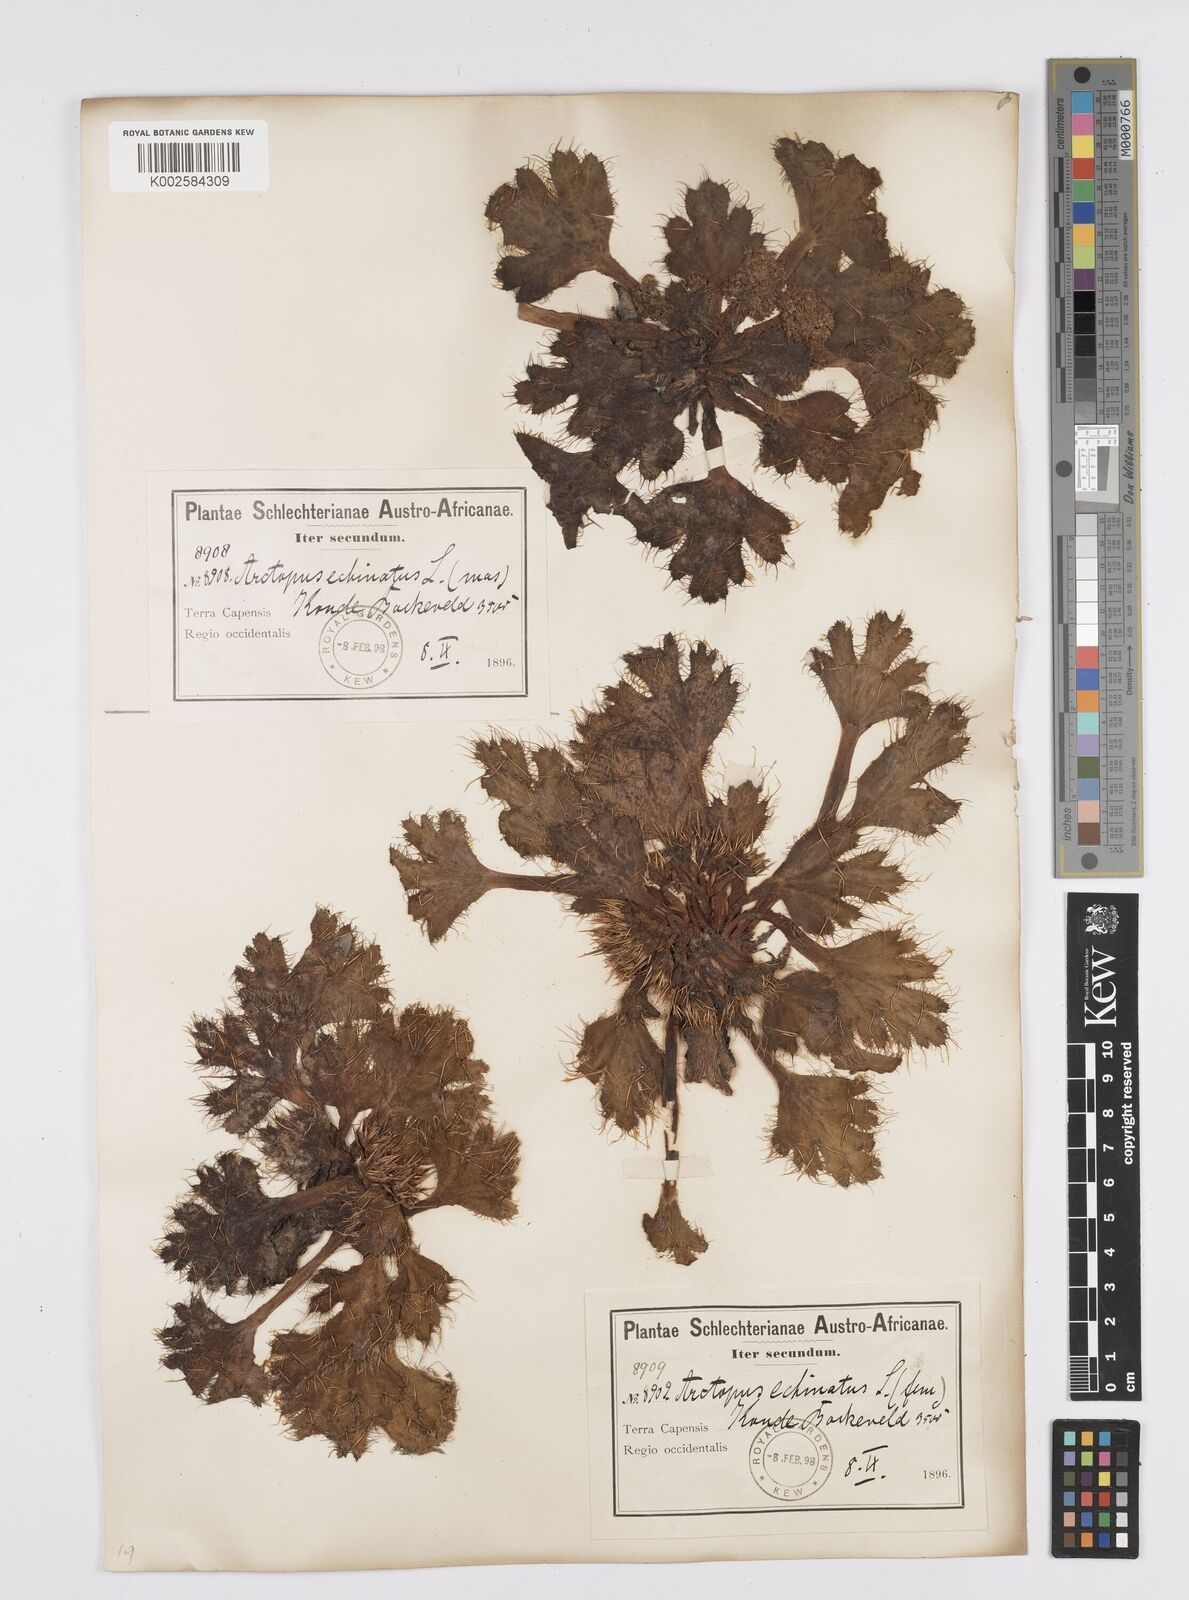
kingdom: Plantae
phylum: Tracheophyta
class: Magnoliopsida
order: Apiales
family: Apiaceae
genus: Arctopus
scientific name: Arctopus echinatus
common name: Platdoring
